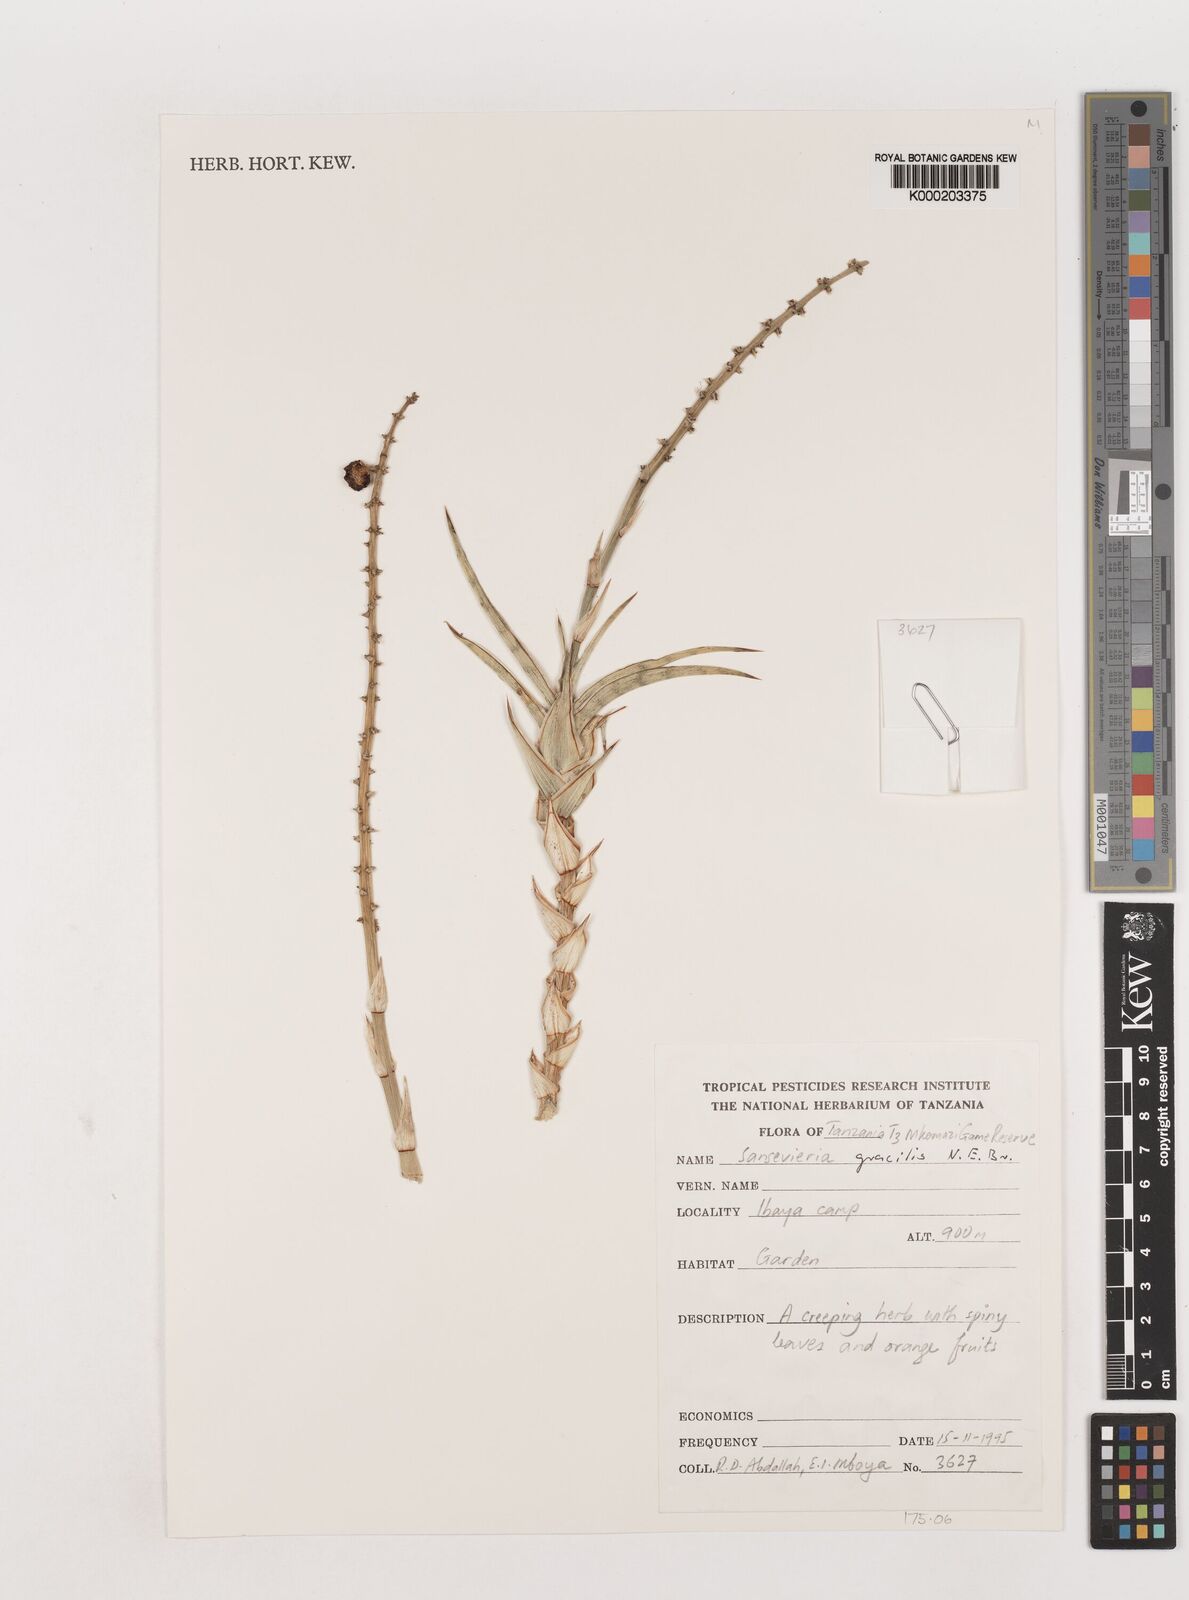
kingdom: Plantae
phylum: Tracheophyta
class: Liliopsida
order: Asparagales
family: Asparagaceae
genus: Dracaena
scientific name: Dracaena serpenta
